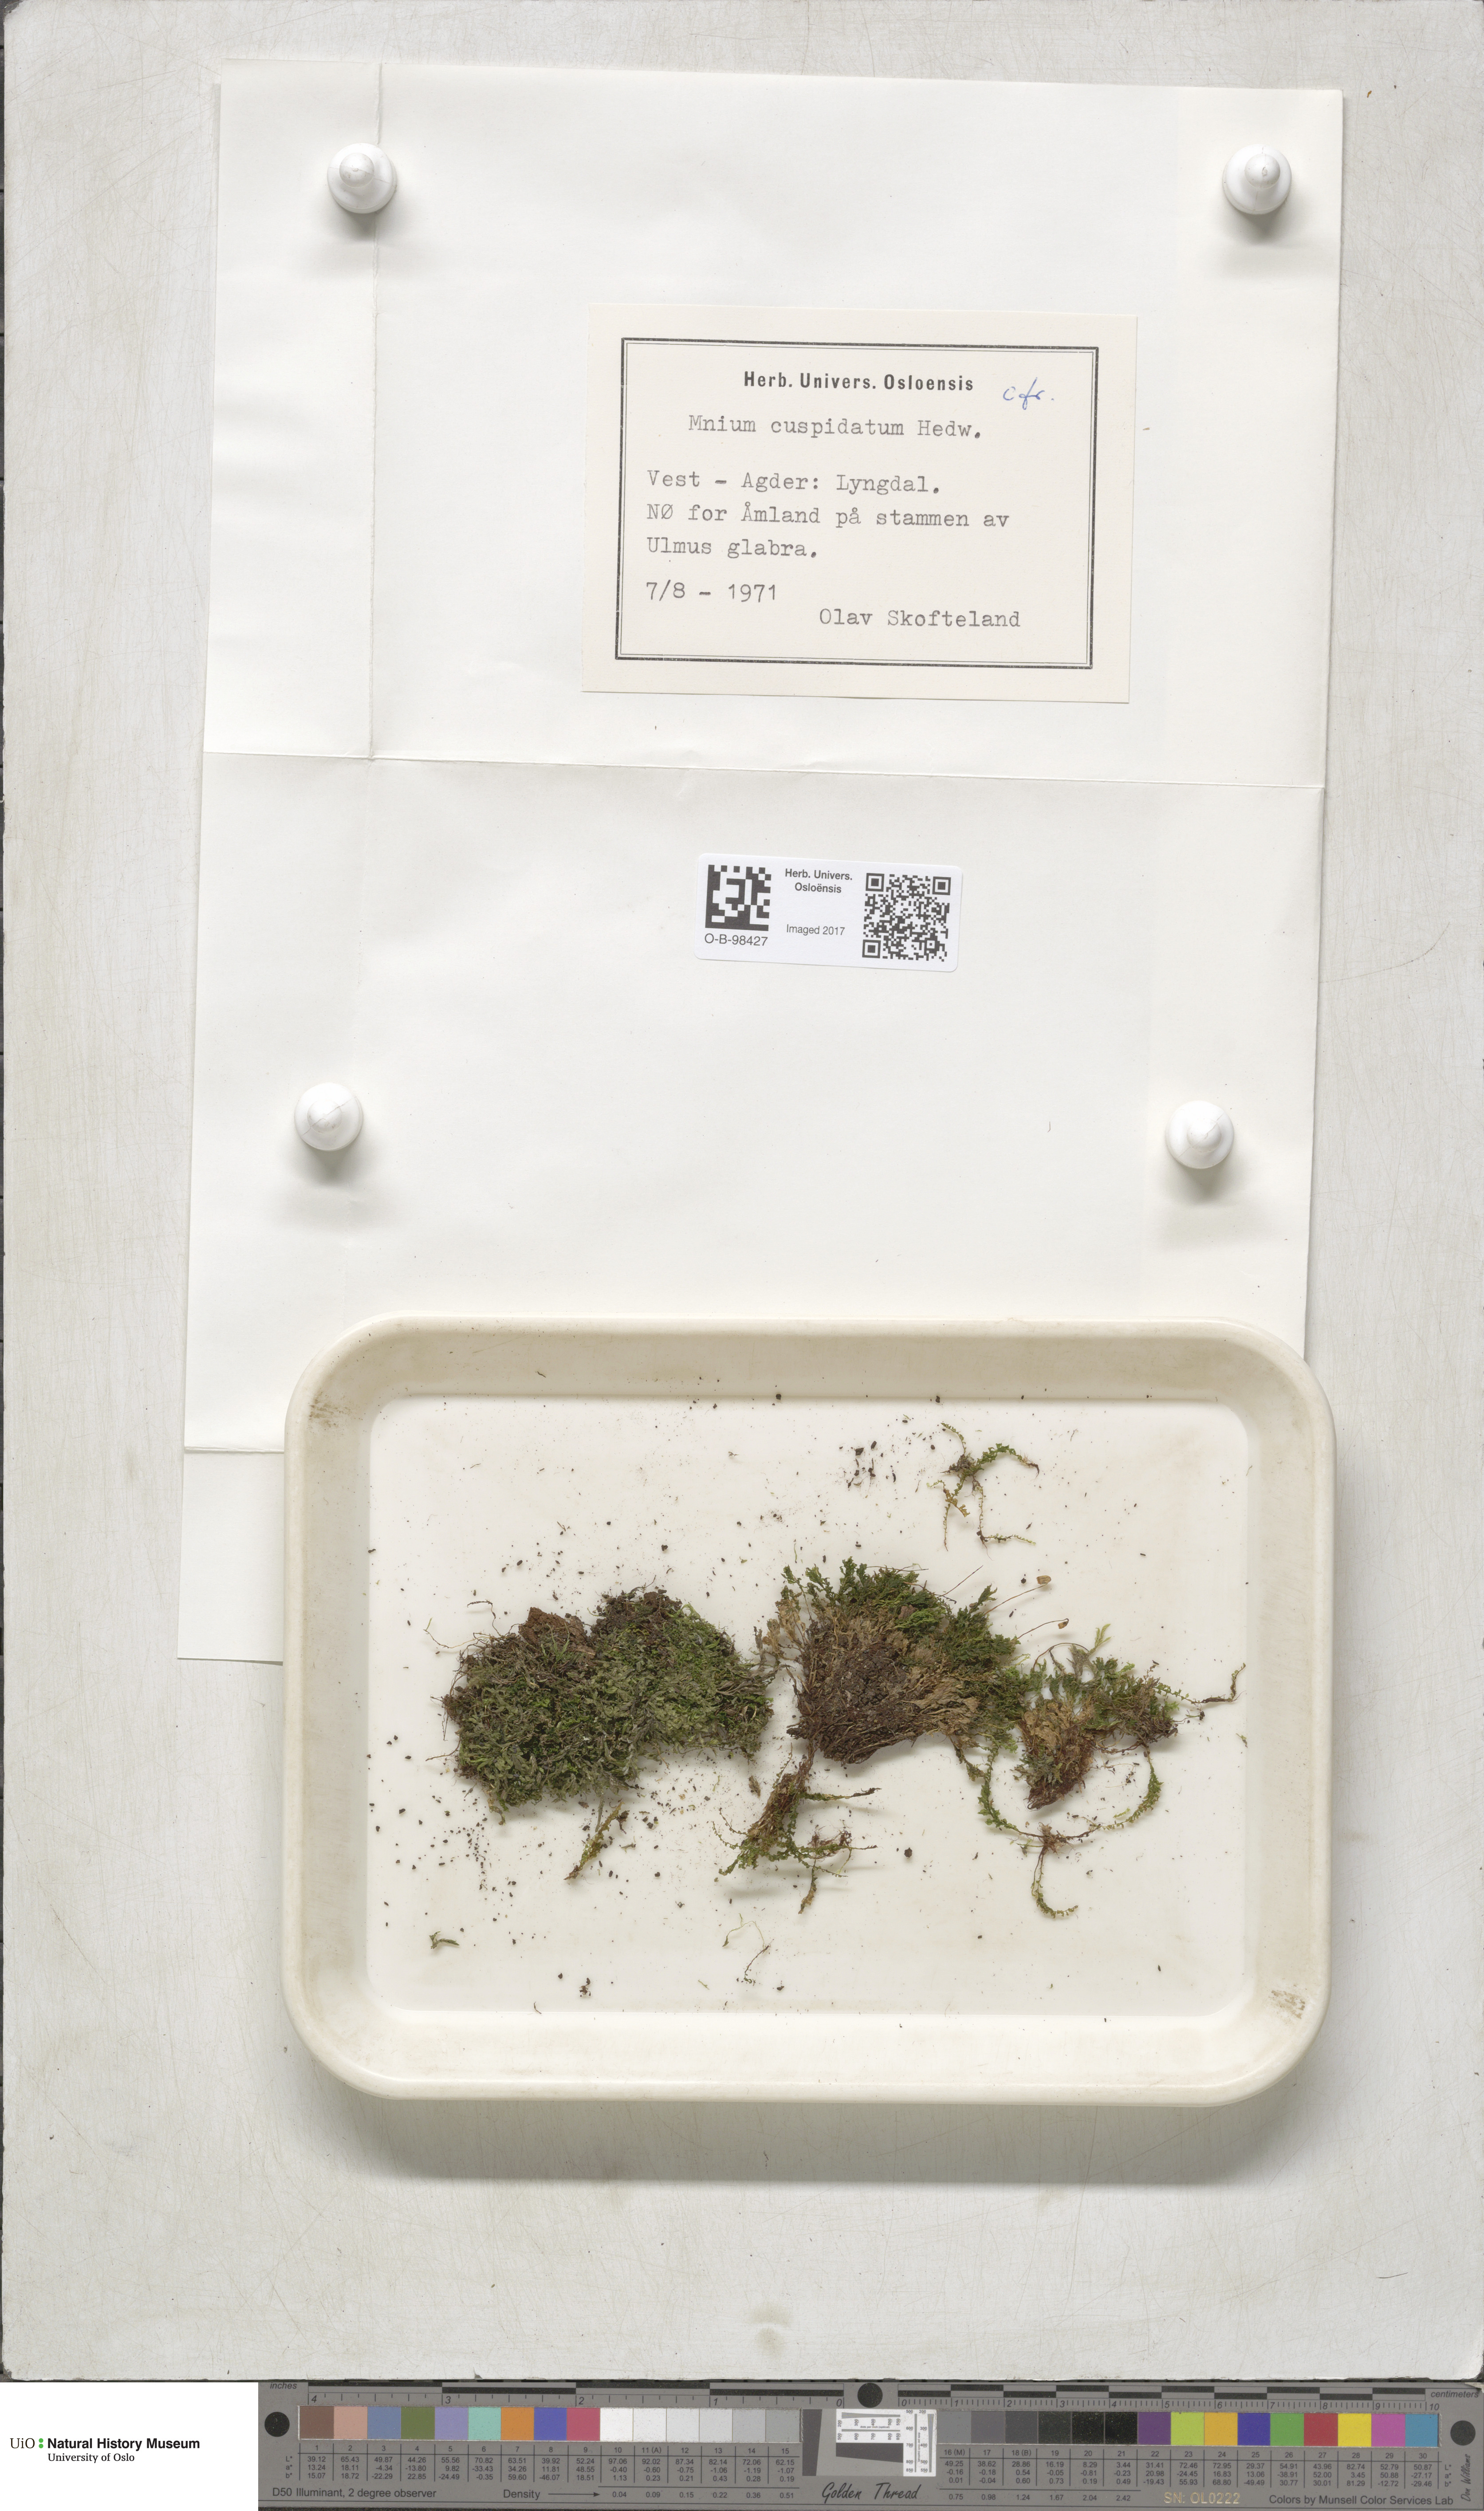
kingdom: Plantae
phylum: Bryophyta
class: Bryopsida
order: Bryales
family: Mniaceae
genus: Plagiomnium
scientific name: Plagiomnium cuspidatum
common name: Woodsy leafy moss
